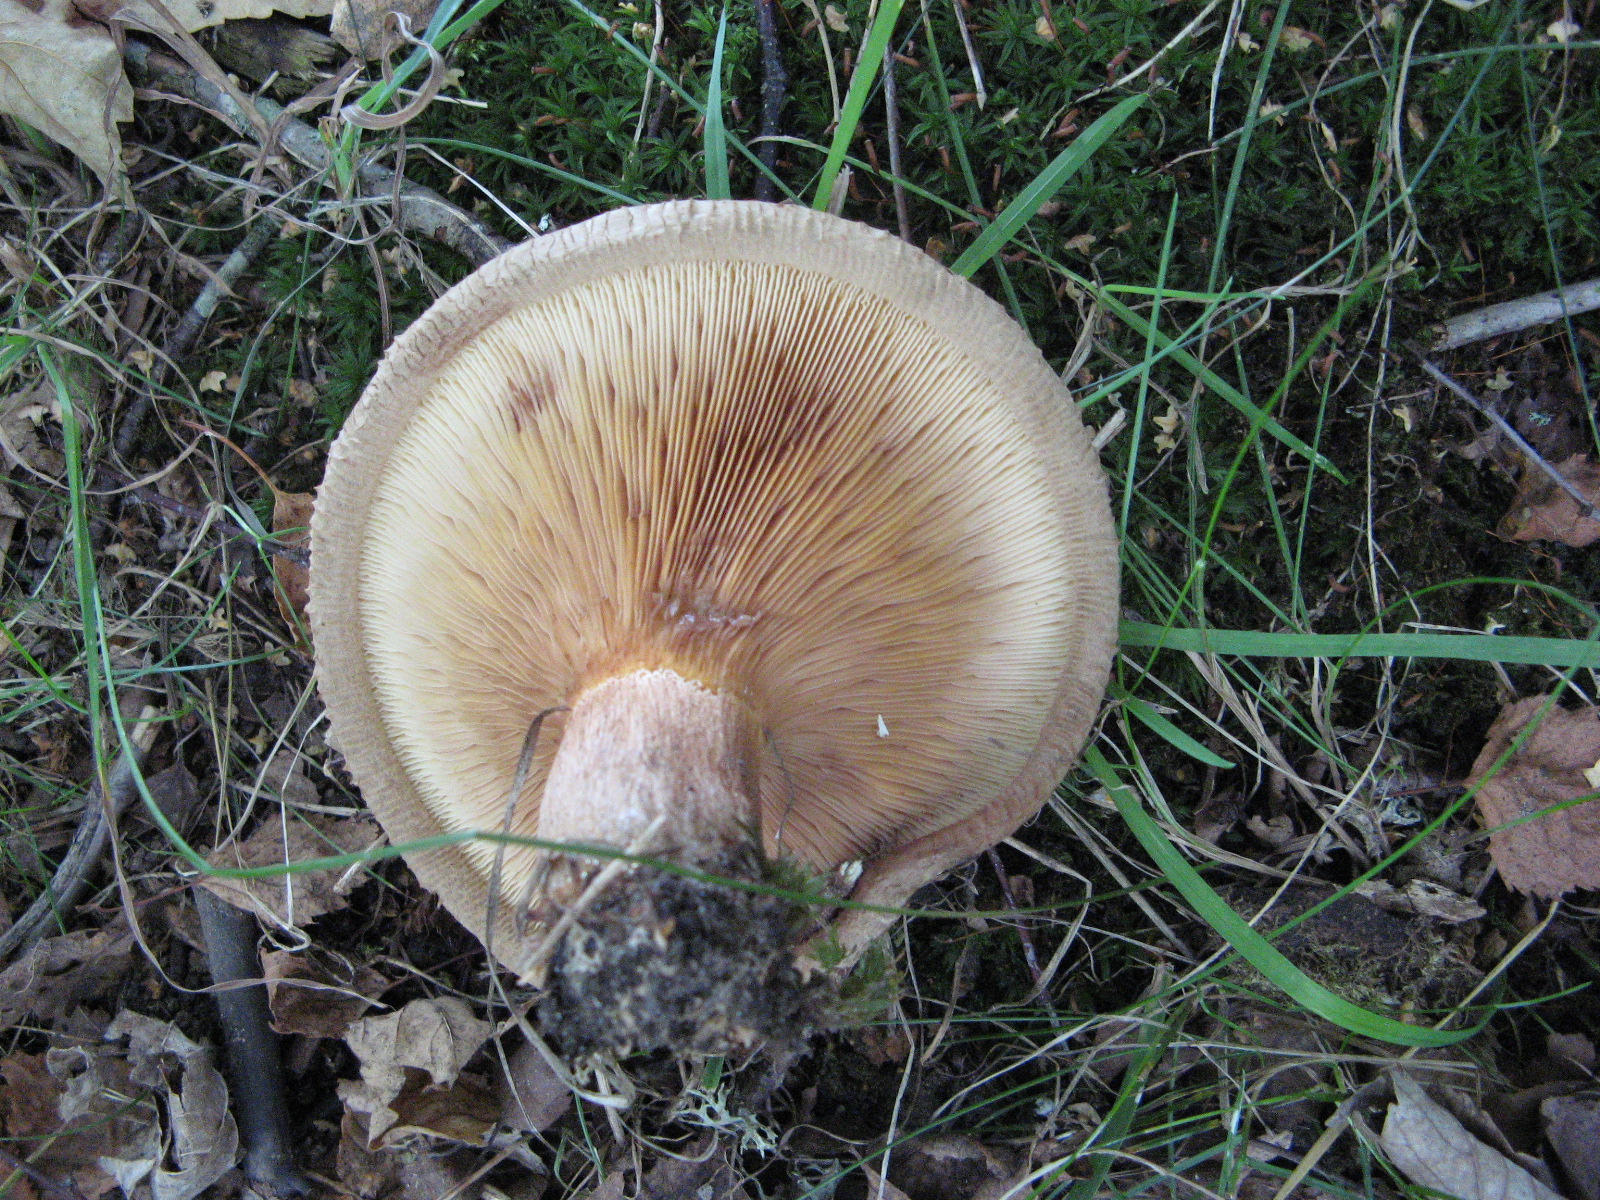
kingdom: Fungi
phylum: Basidiomycota
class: Agaricomycetes
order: Boletales
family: Paxillaceae
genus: Paxillus
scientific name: Paxillus involutus
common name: almindelig netbladhat
